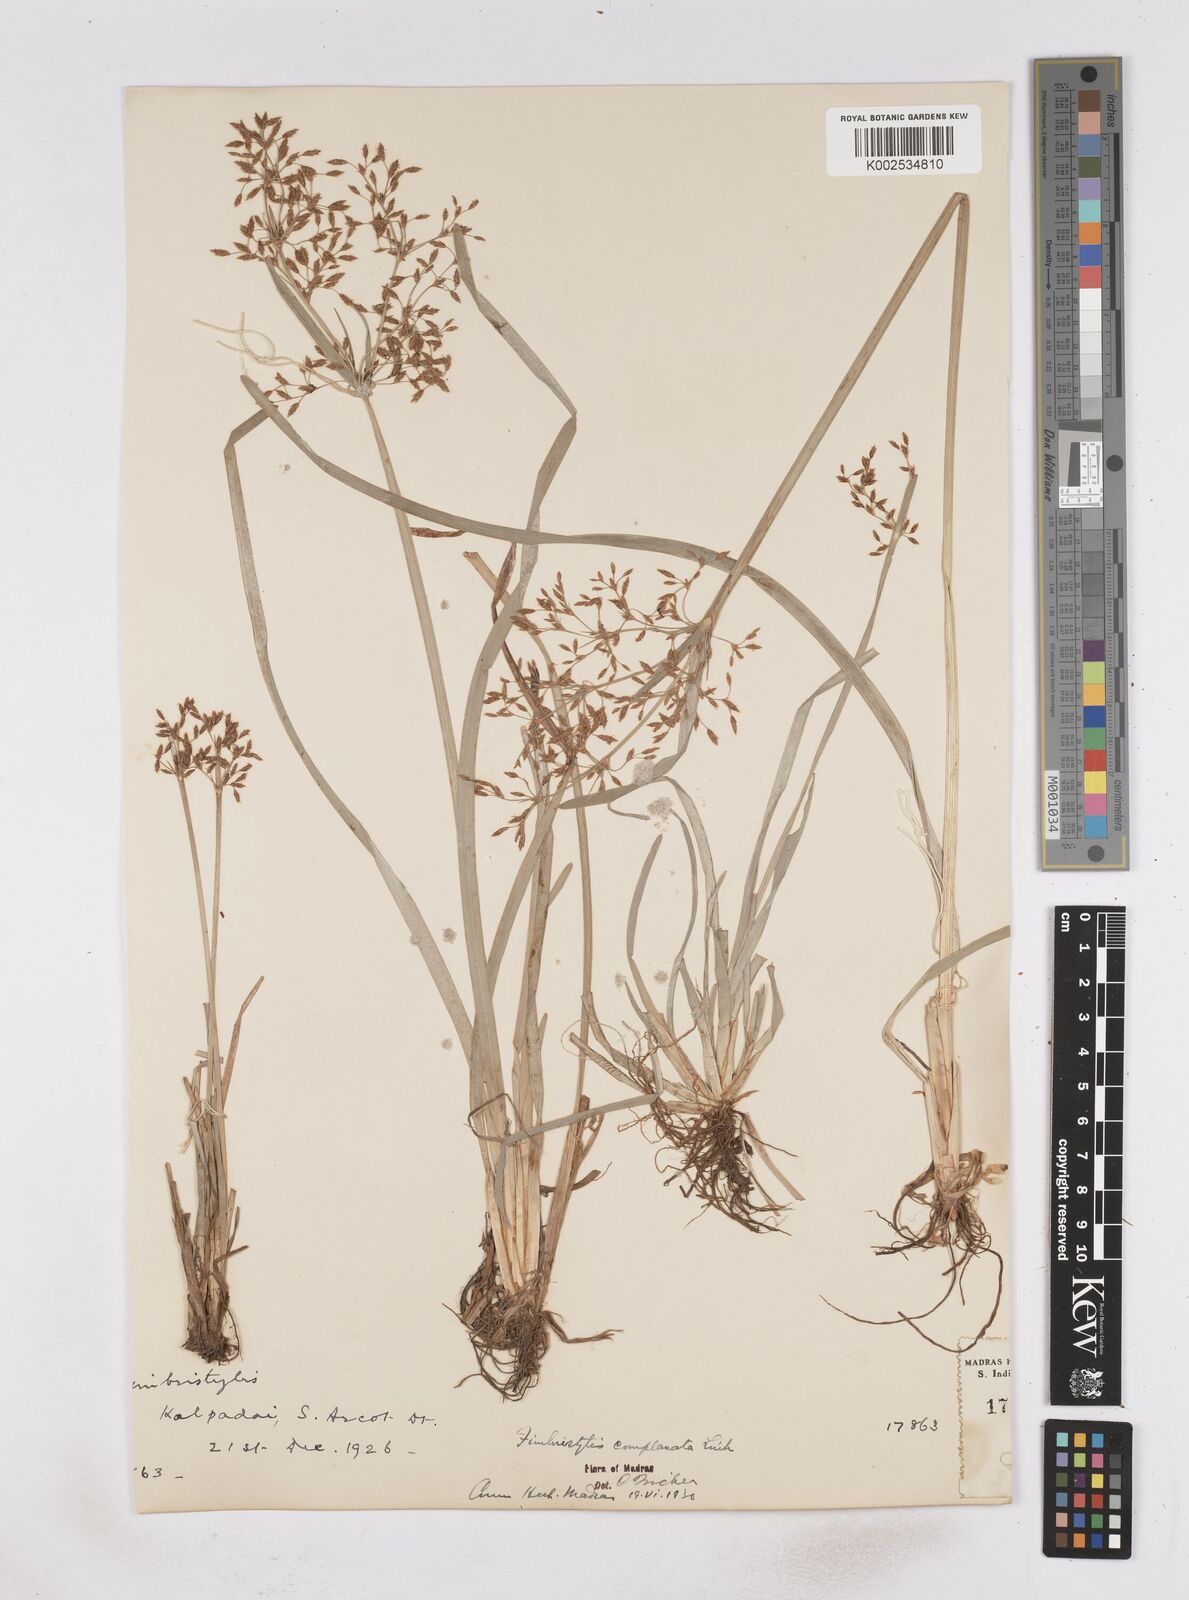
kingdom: Plantae
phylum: Tracheophyta
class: Liliopsida
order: Poales
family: Cyperaceae
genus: Fimbristylis
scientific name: Fimbristylis complanata
